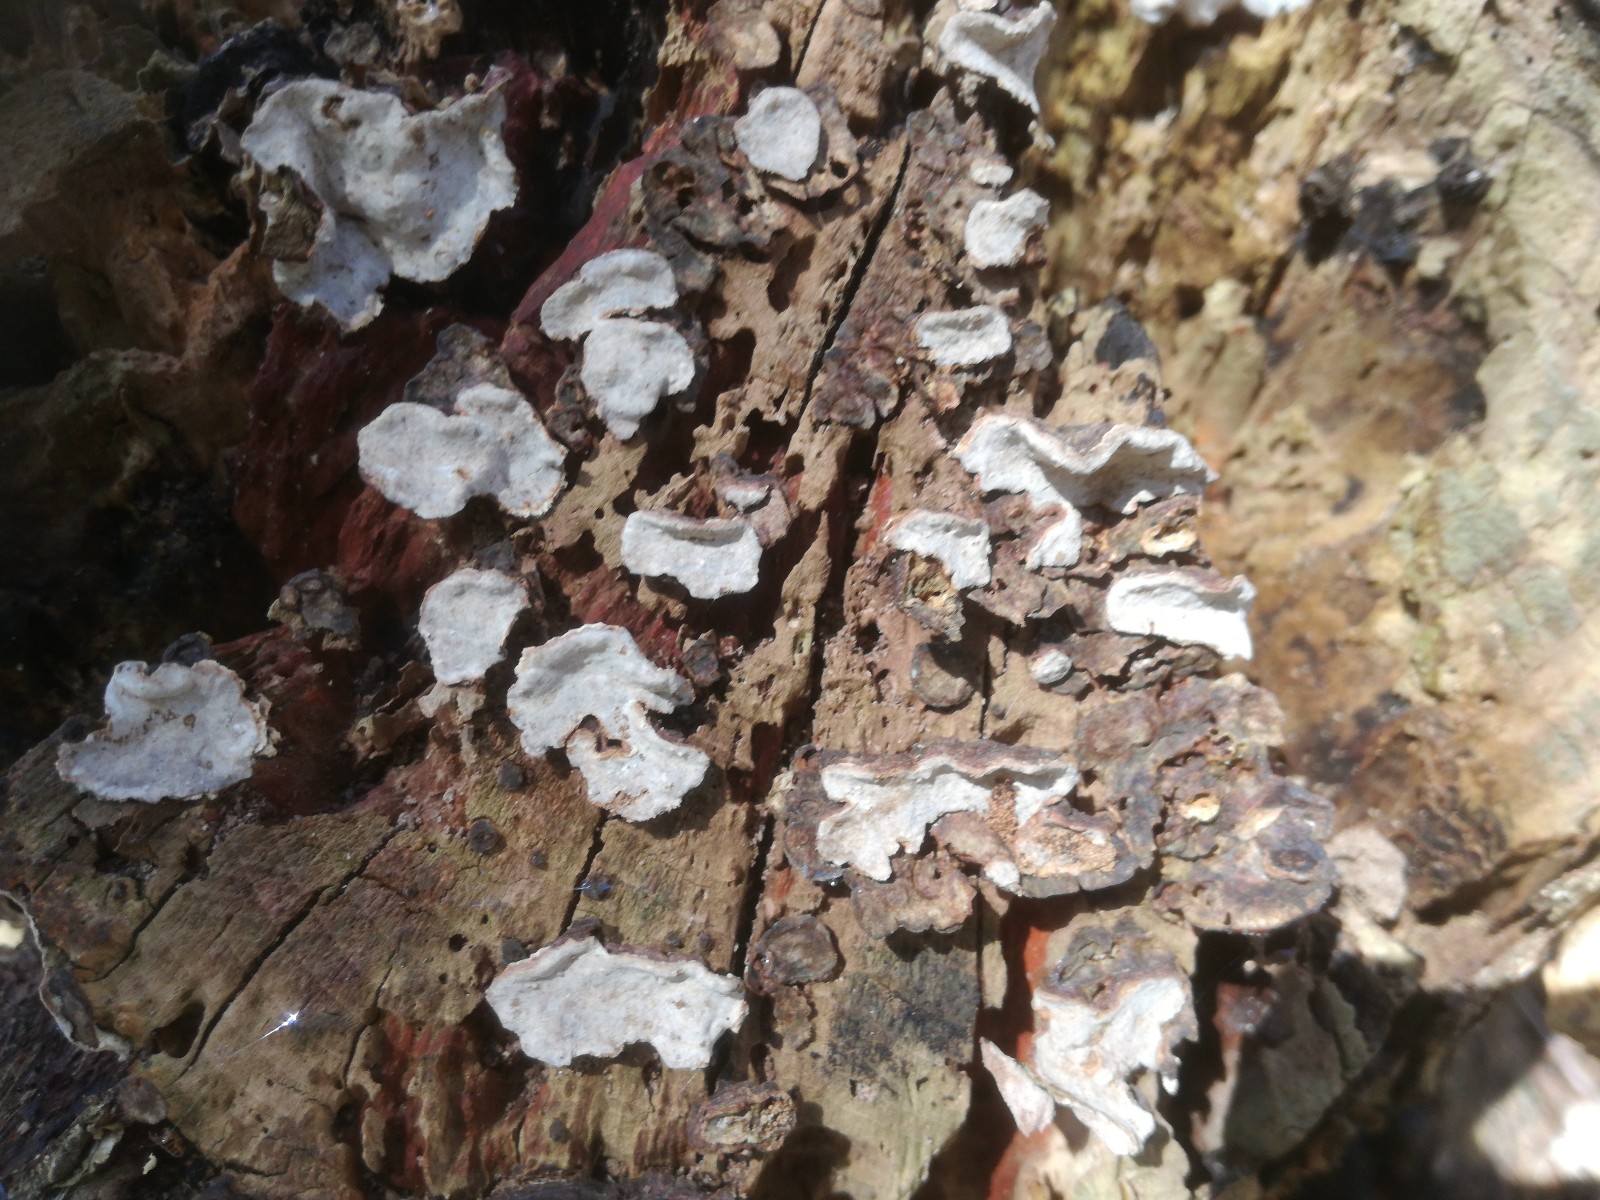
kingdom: Fungi
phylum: Basidiomycota
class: Agaricomycetes
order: Russulales
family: Stereaceae
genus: Stereum
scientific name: Stereum rugosum
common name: rynket lædersvamp
